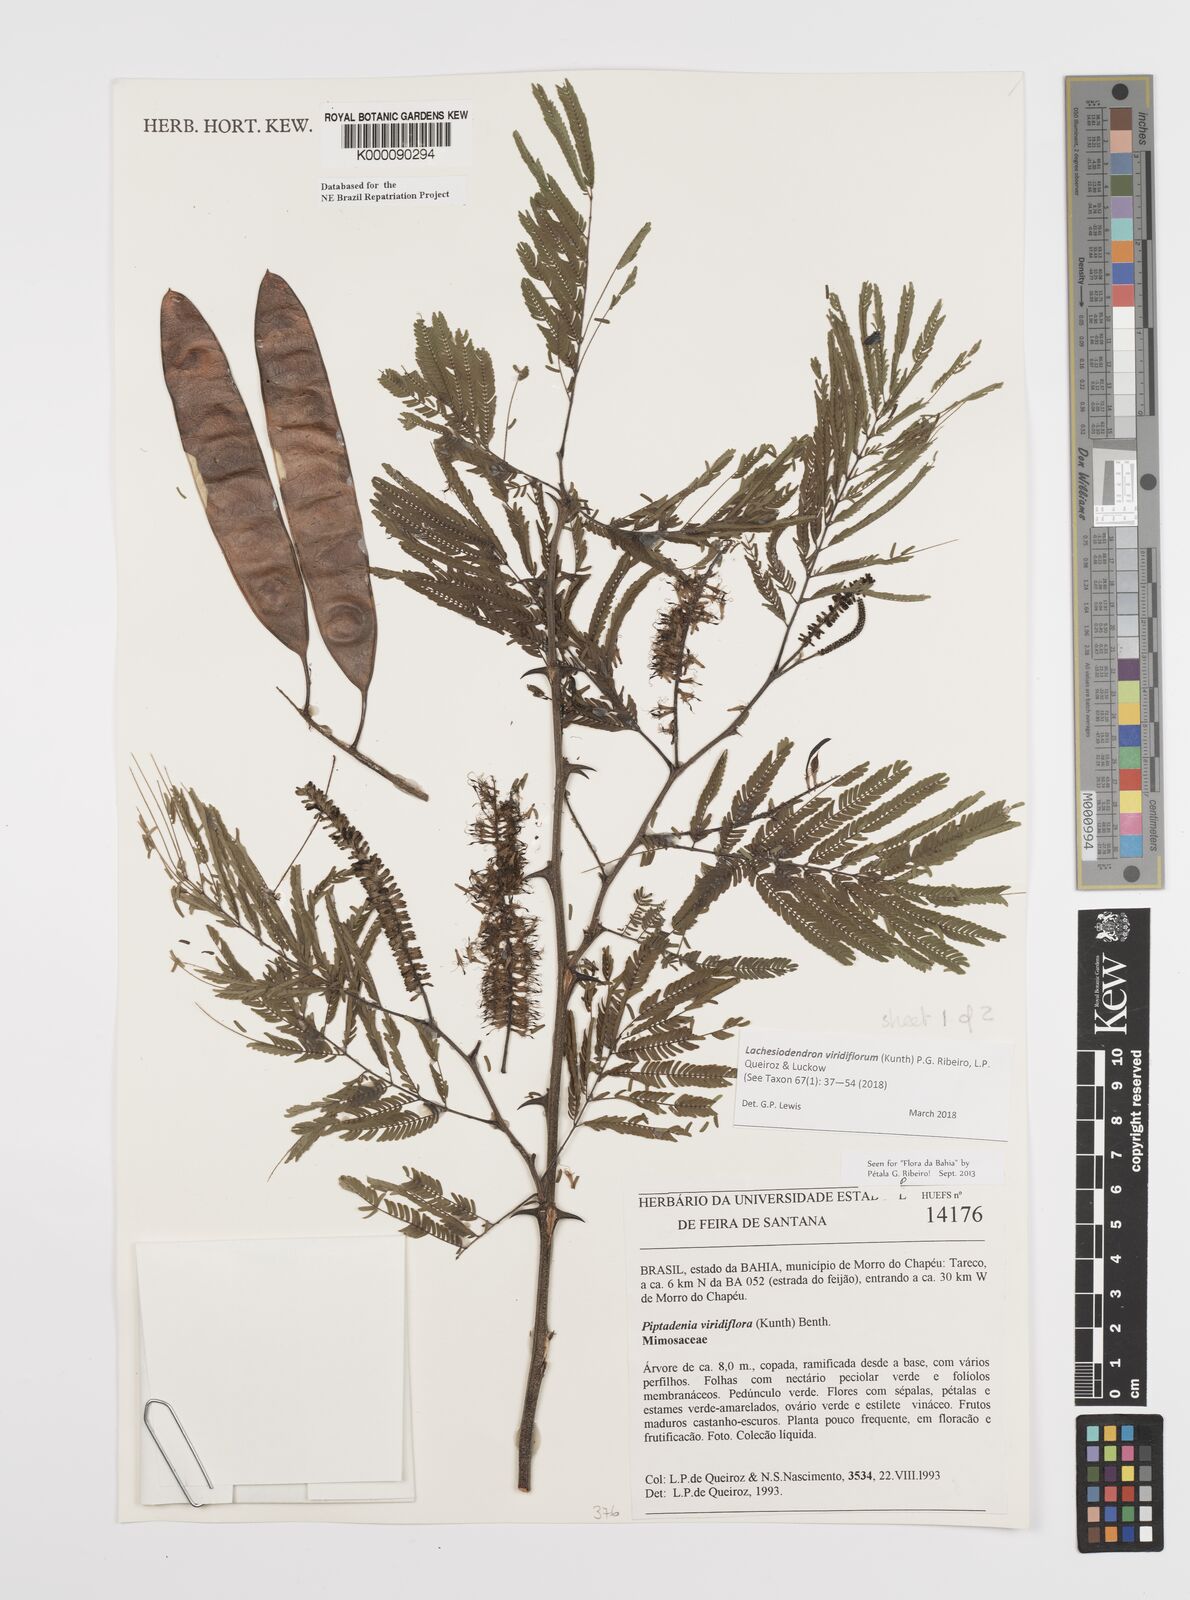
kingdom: Plantae
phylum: Tracheophyta
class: Magnoliopsida
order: Fabales
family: Fabaceae
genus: Lachesiodendron
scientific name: Lachesiodendron viridiflorum
